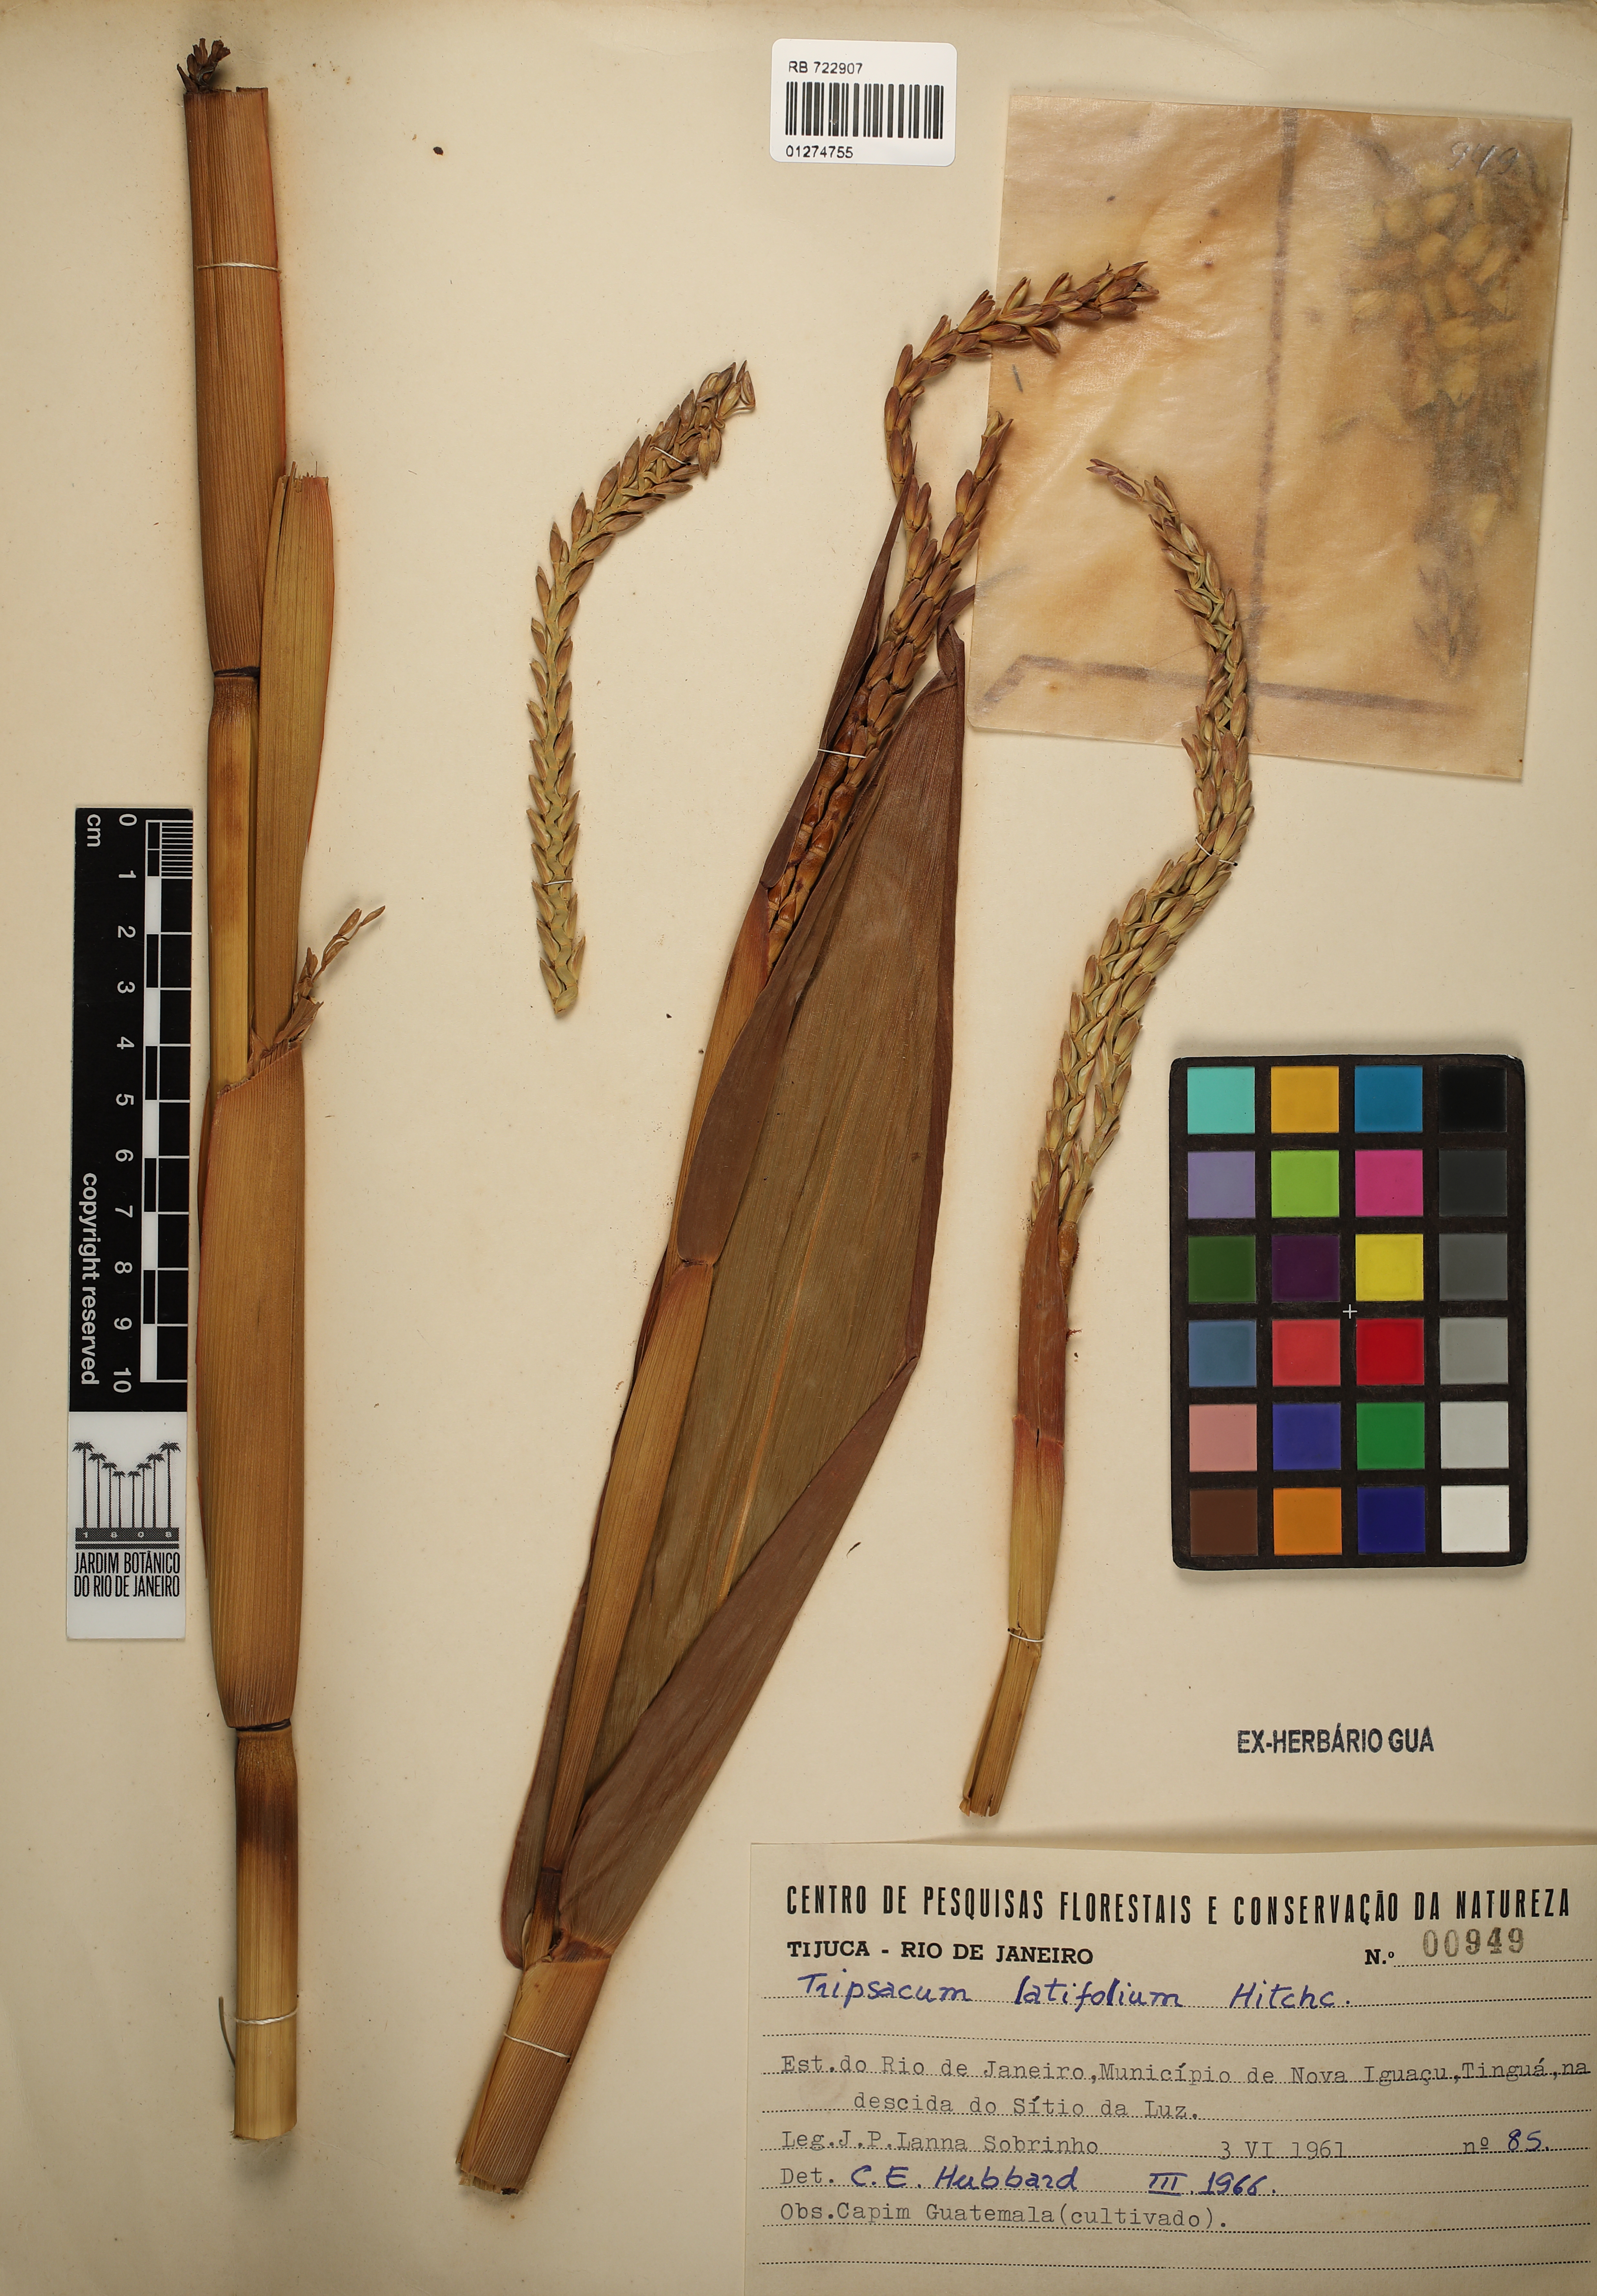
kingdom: Plantae
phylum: Tracheophyta
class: Liliopsida
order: Poales
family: Poaceae
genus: Tripsacum
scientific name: Tripsacum latifolium
